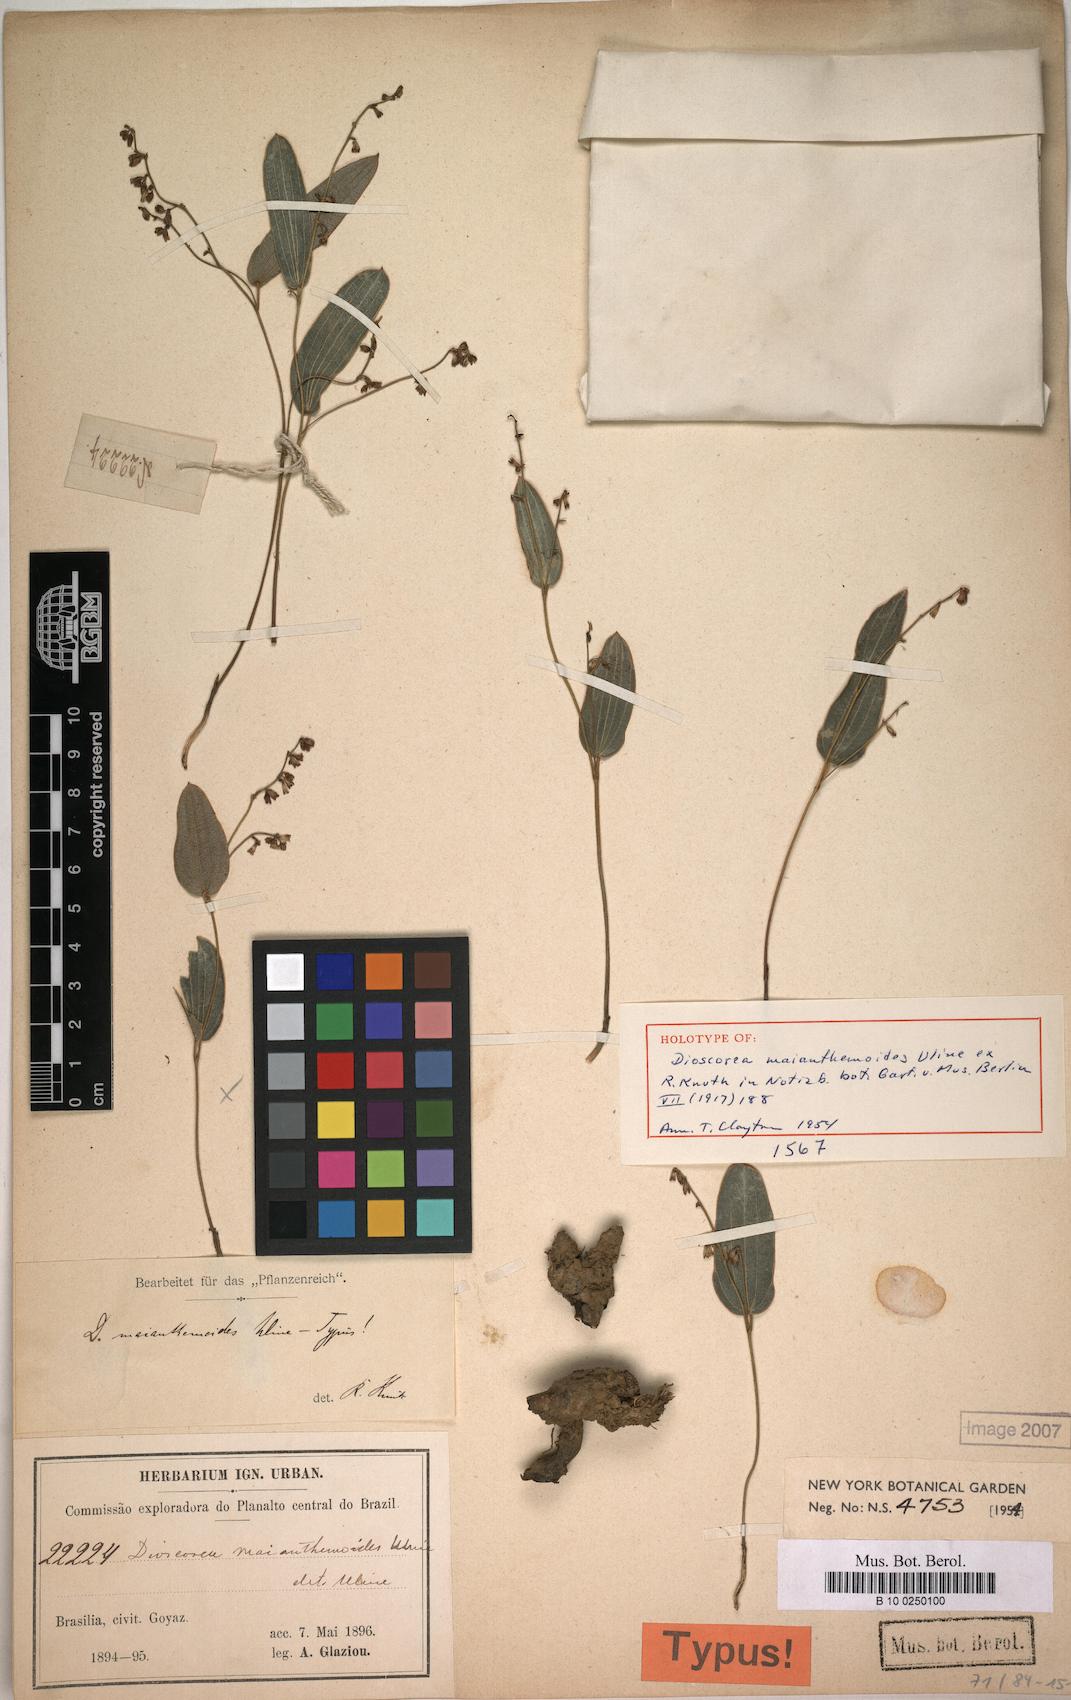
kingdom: Plantae
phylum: Tracheophyta
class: Liliopsida
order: Dioscoreales
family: Dioscoreaceae
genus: Dioscorea
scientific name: Dioscorea maianthemoides
